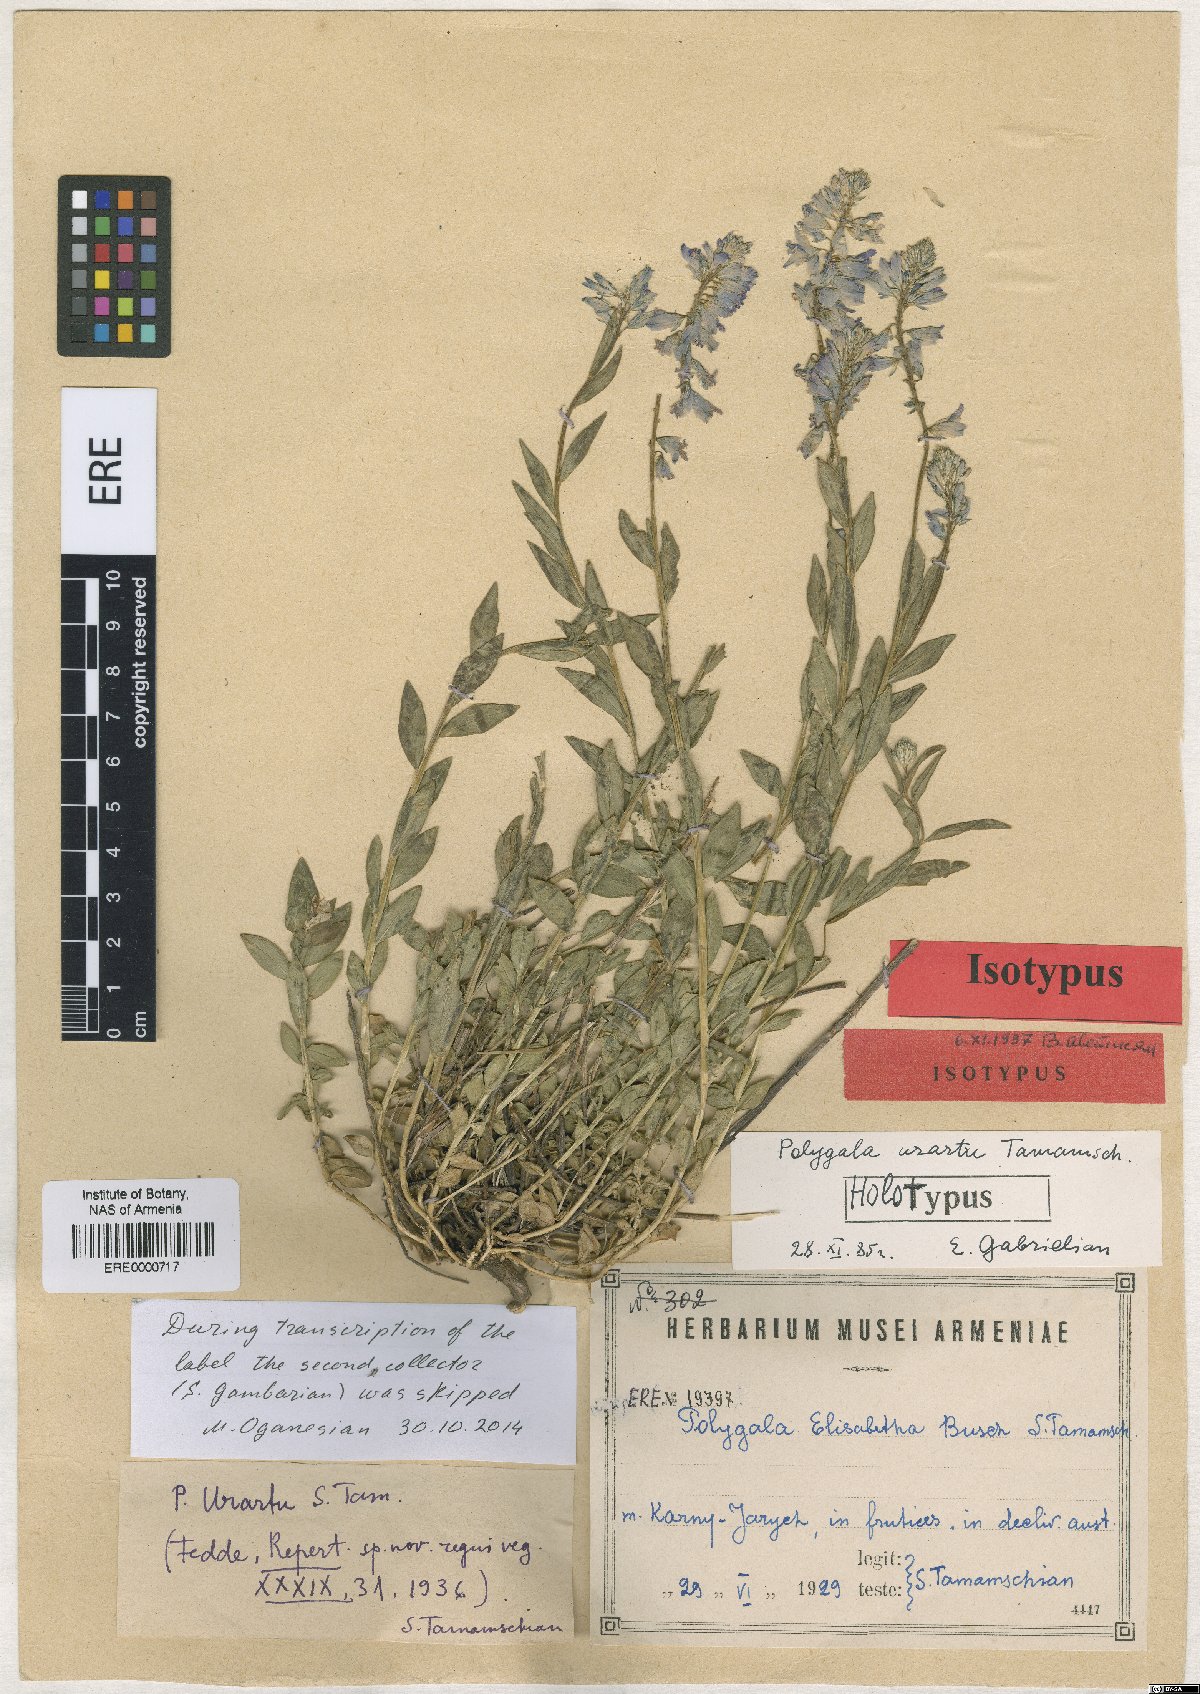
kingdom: Plantae
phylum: Tracheophyta
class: Magnoliopsida
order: Fabales
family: Polygalaceae
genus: Polygala
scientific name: Polygala urartu
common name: Urartuan milkwort
